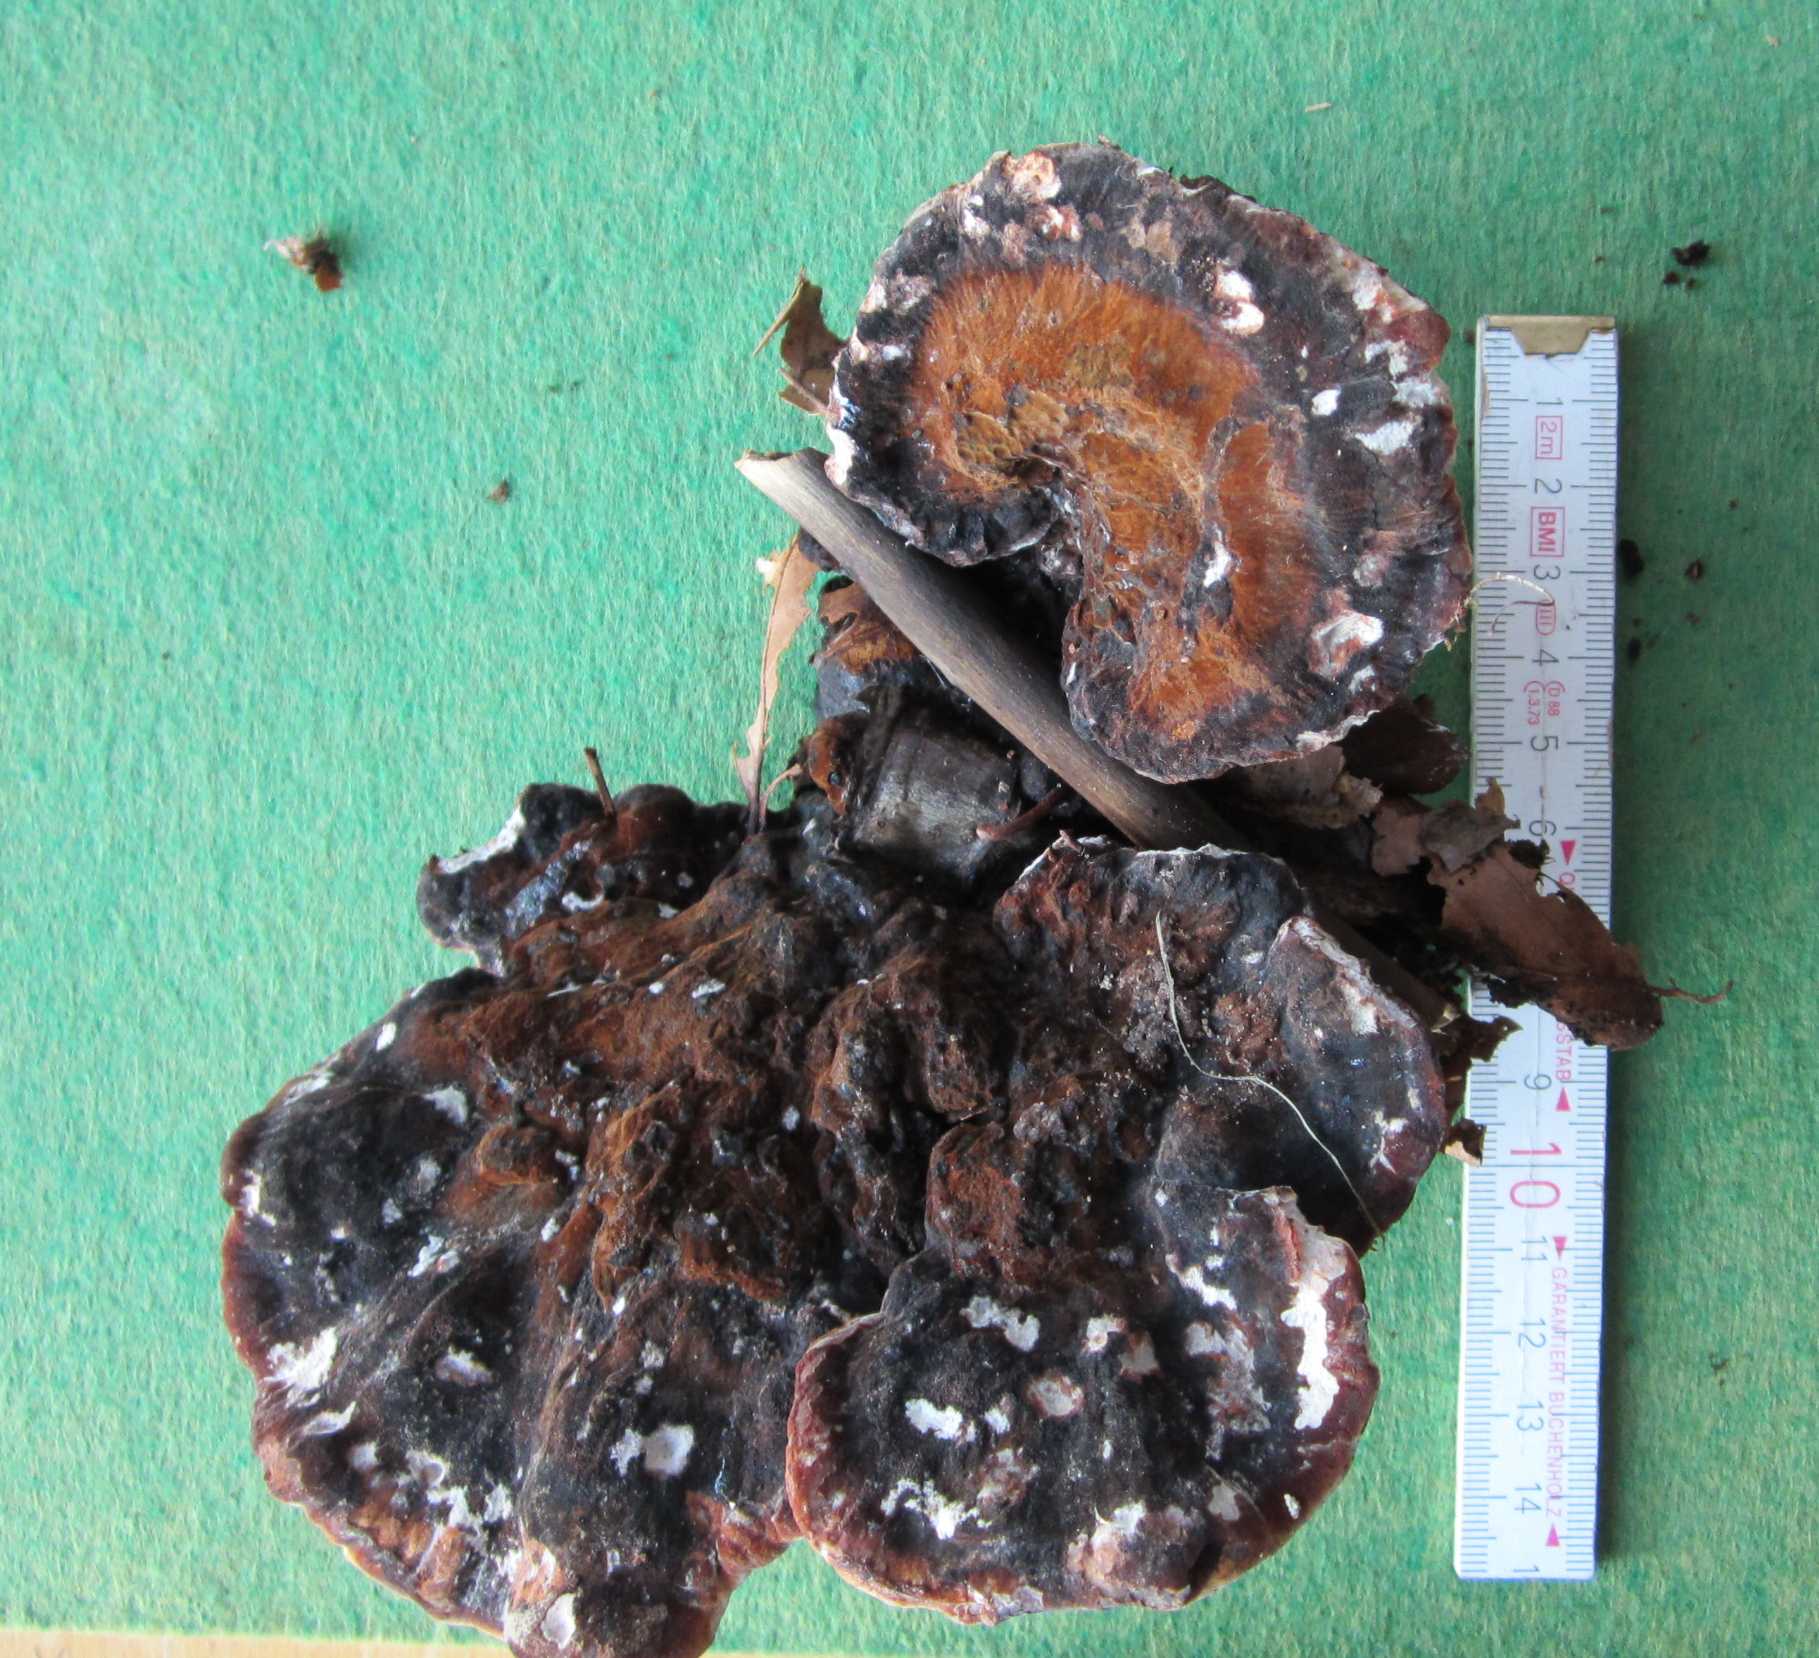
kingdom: Fungi
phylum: Basidiomycota
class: Agaricomycetes
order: Polyporales
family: Ischnodermataceae
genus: Ischnoderma
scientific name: Ischnoderma resinosum
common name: løv-tjæreporesvamp
